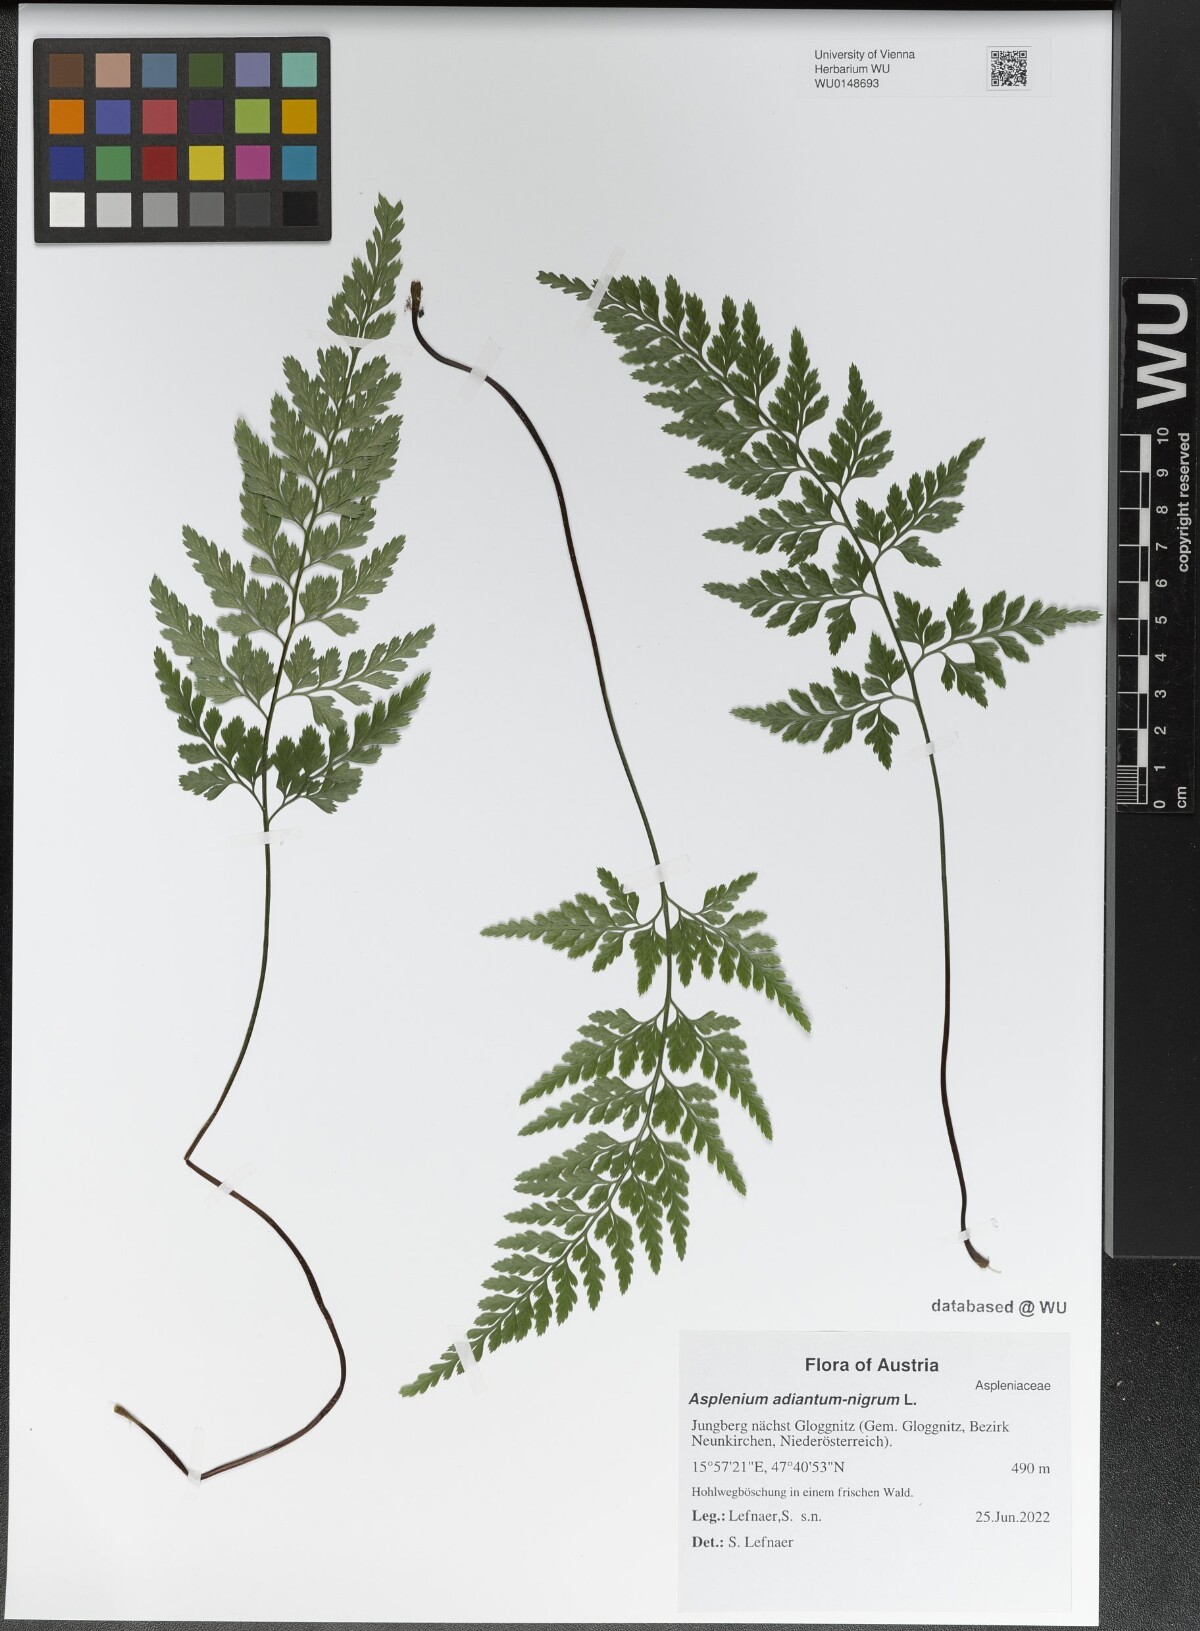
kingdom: Plantae
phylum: Tracheophyta
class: Polypodiopsida
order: Polypodiales
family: Aspleniaceae
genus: Asplenium
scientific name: Asplenium adiantum-nigrum
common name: Black spleenwort
